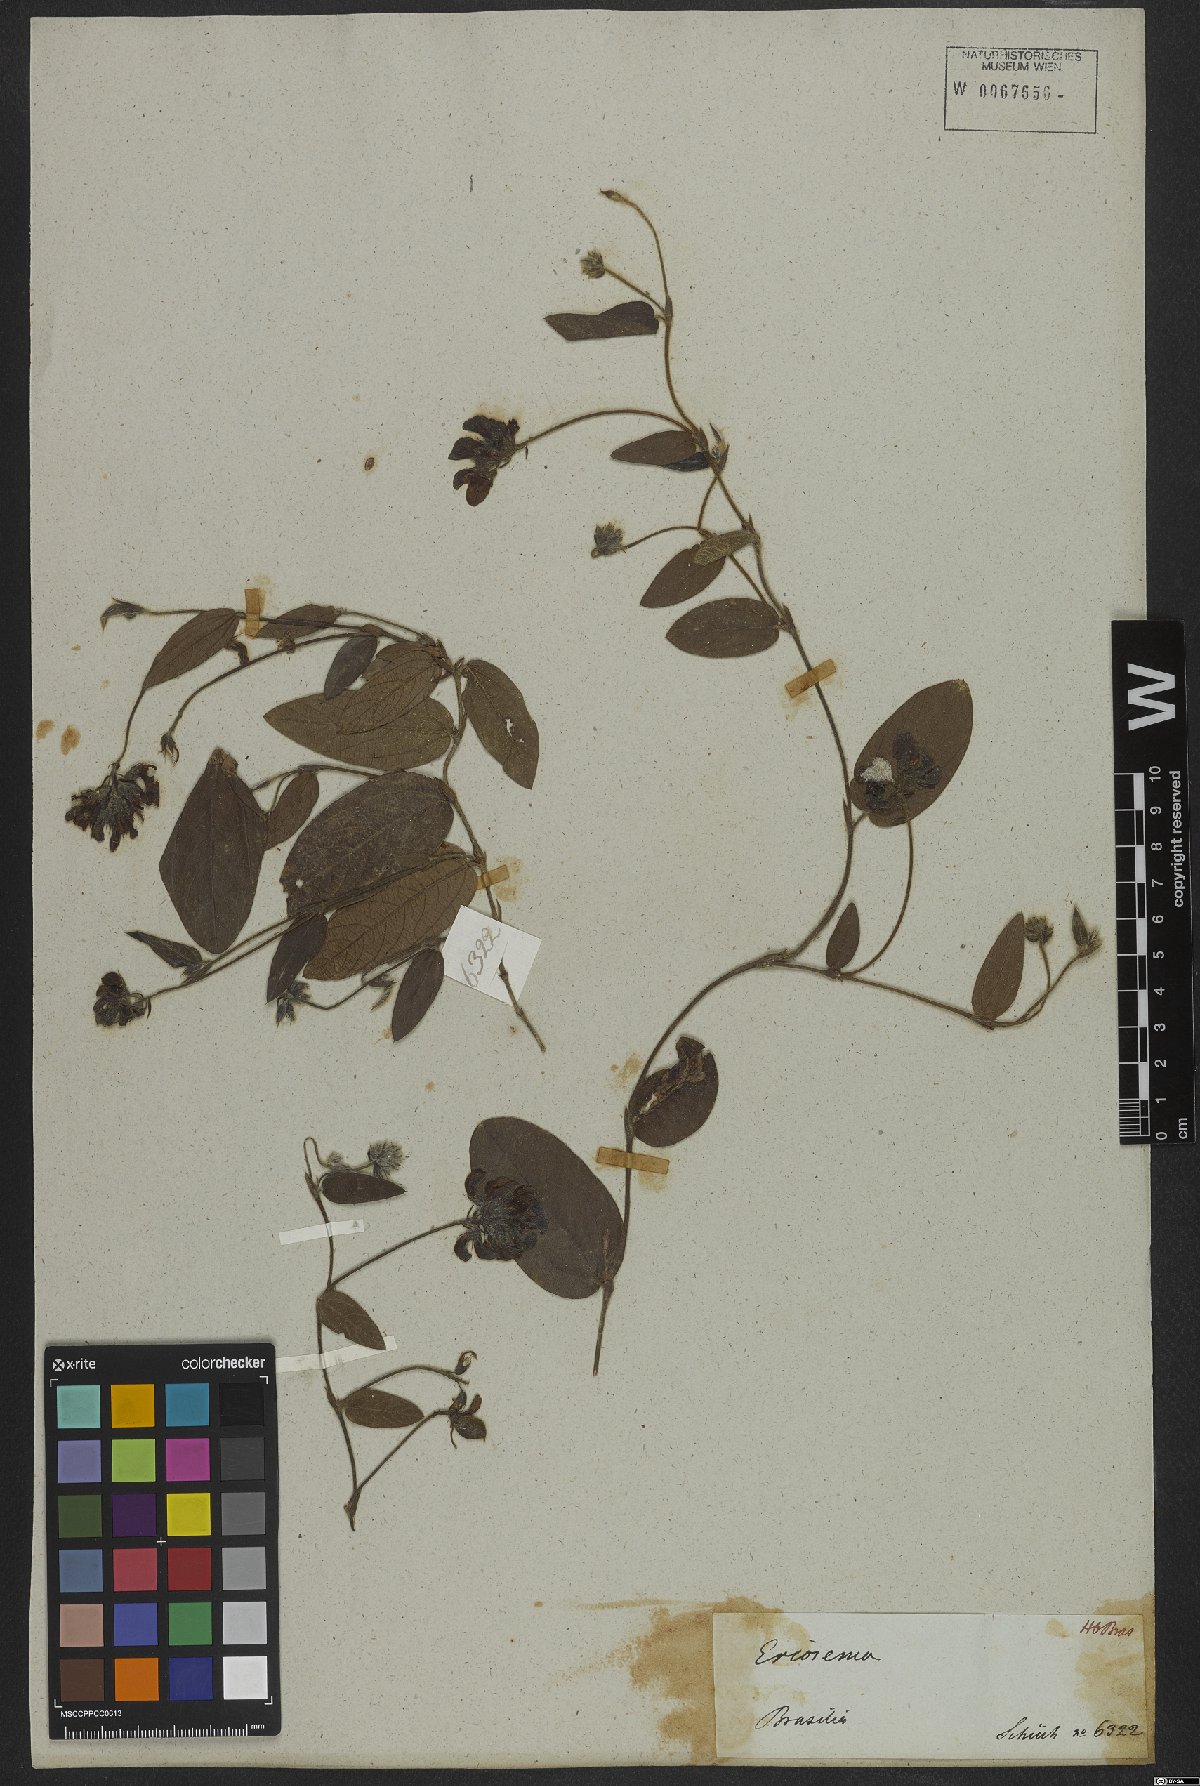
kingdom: Plantae
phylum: Tracheophyta
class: Magnoliopsida
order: Fabales
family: Fabaceae
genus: Eriosema
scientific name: Eriosema heterophyllum
